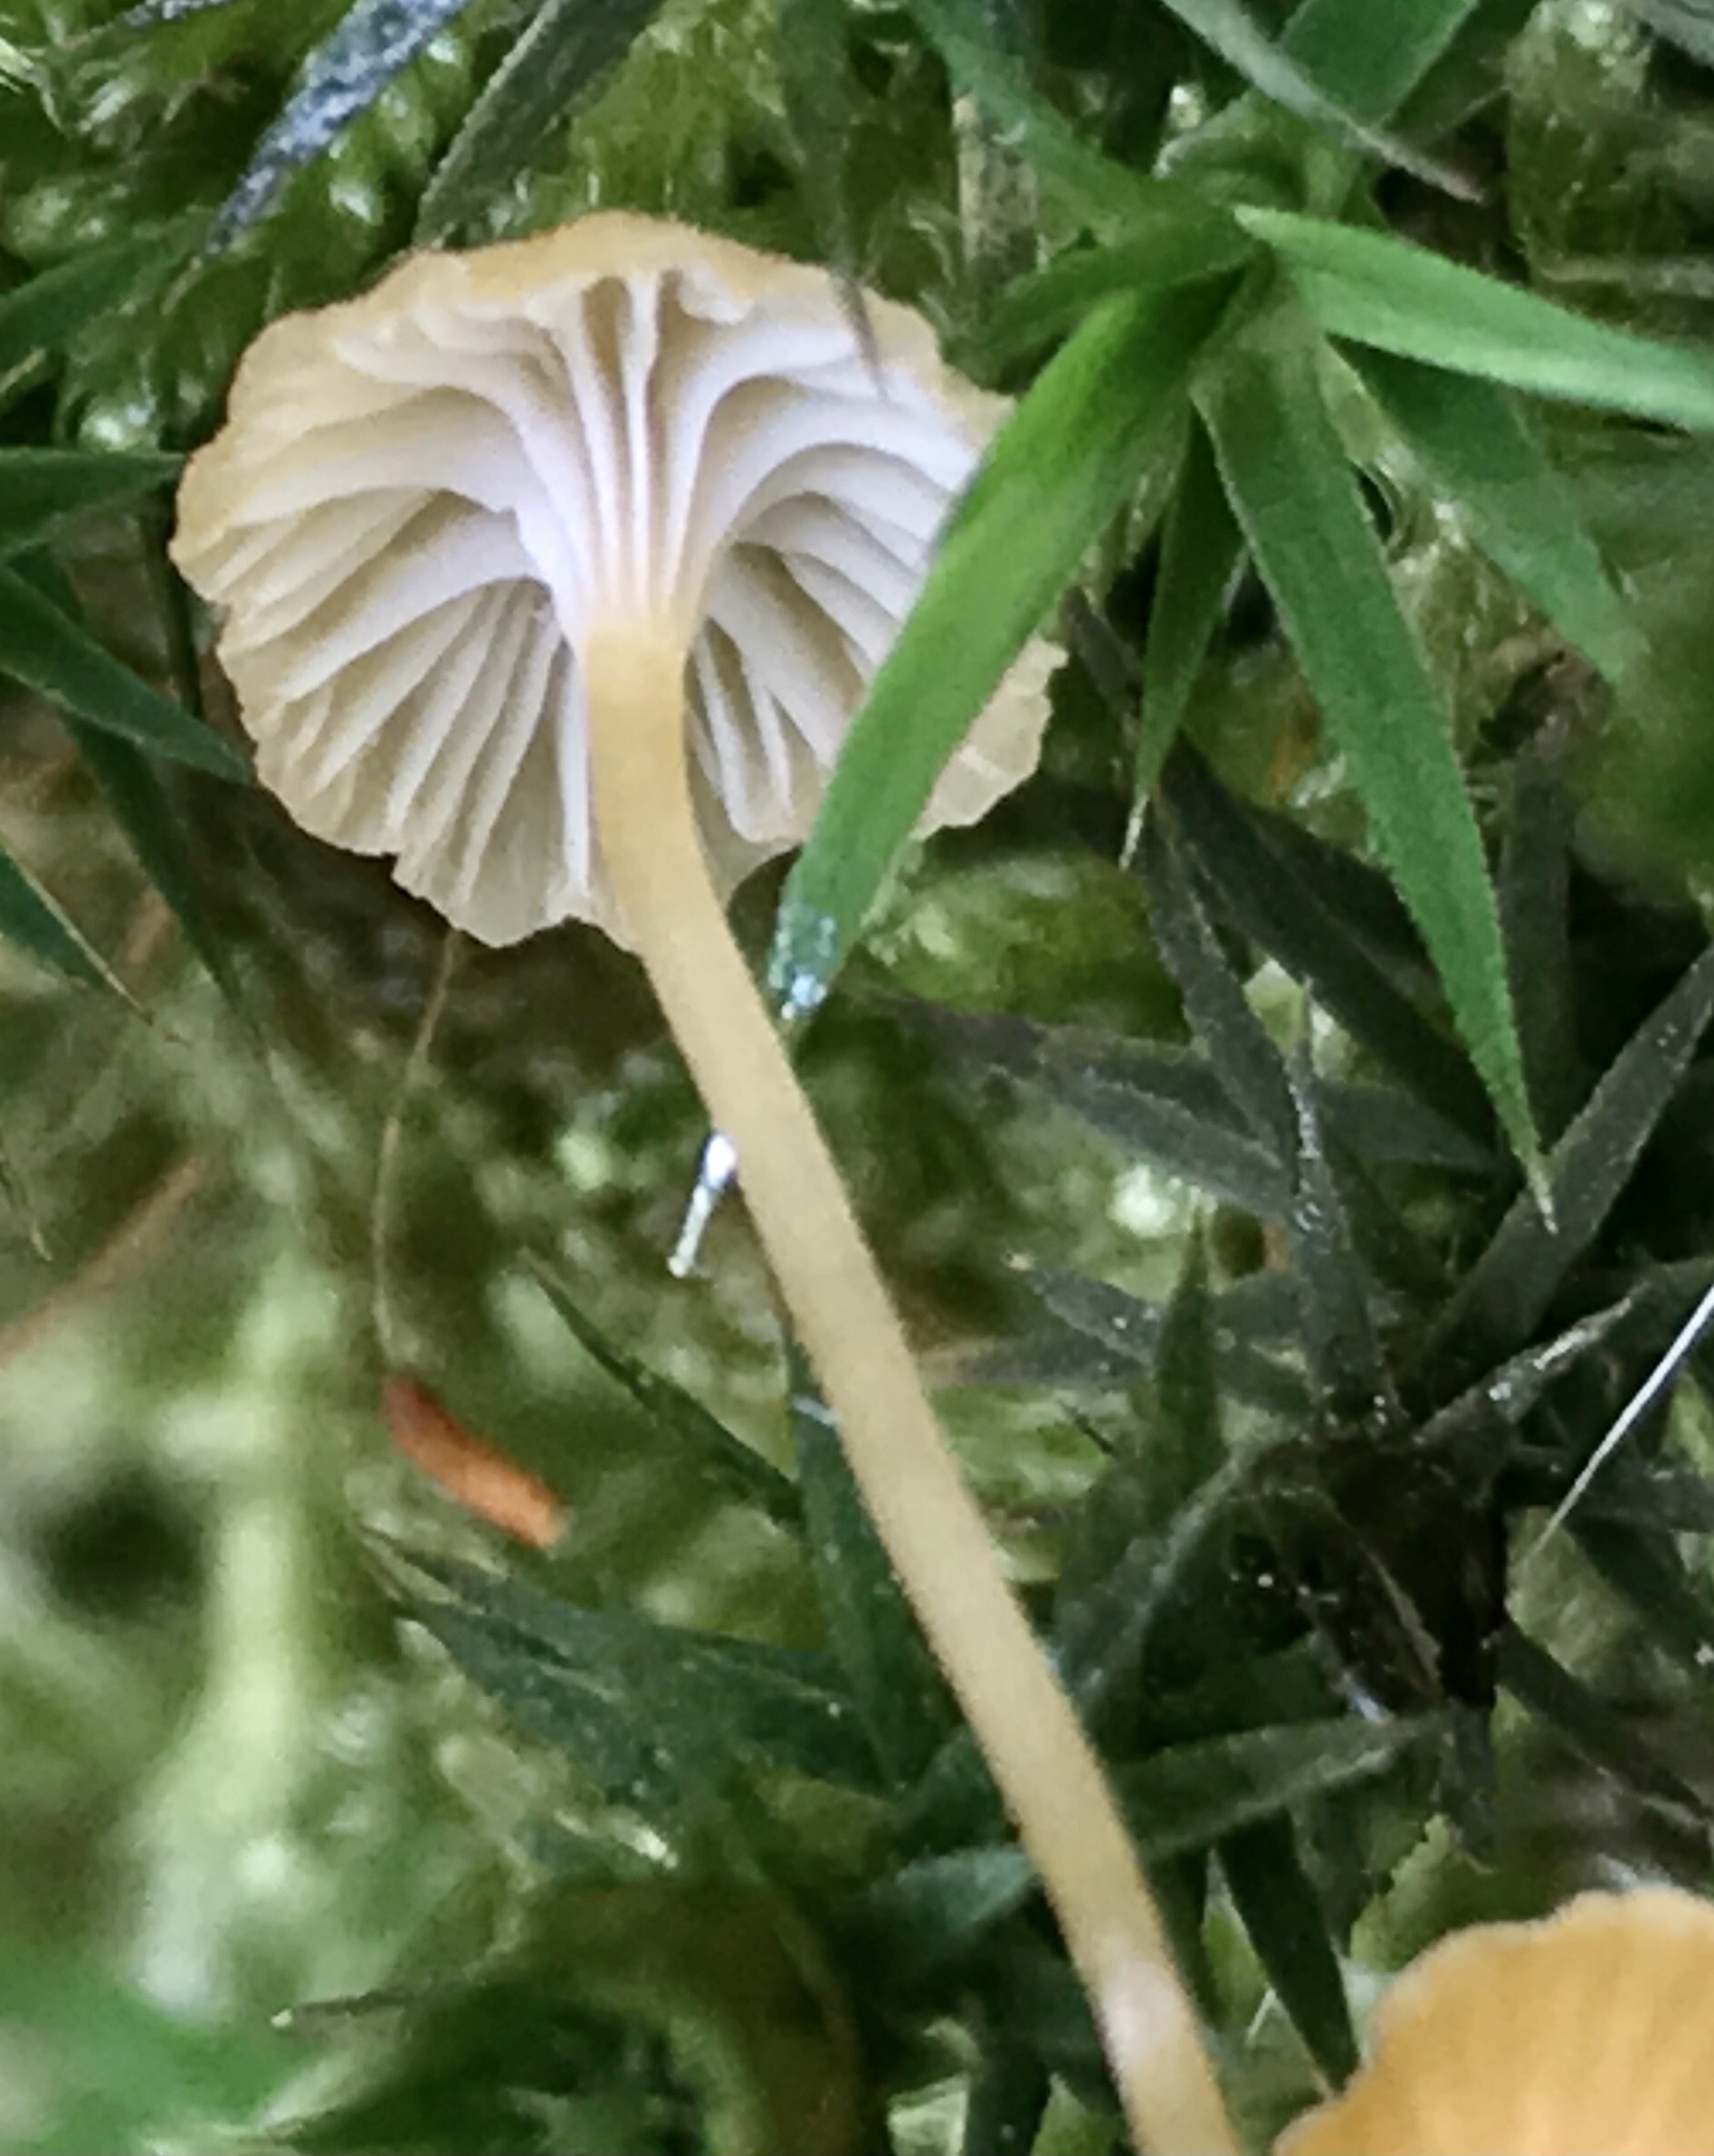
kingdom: Fungi
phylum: Basidiomycota
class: Agaricomycetes
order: Hymenochaetales
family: Rickenellaceae
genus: Rickenella
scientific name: Rickenella fibula
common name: orange mosnavlehat
